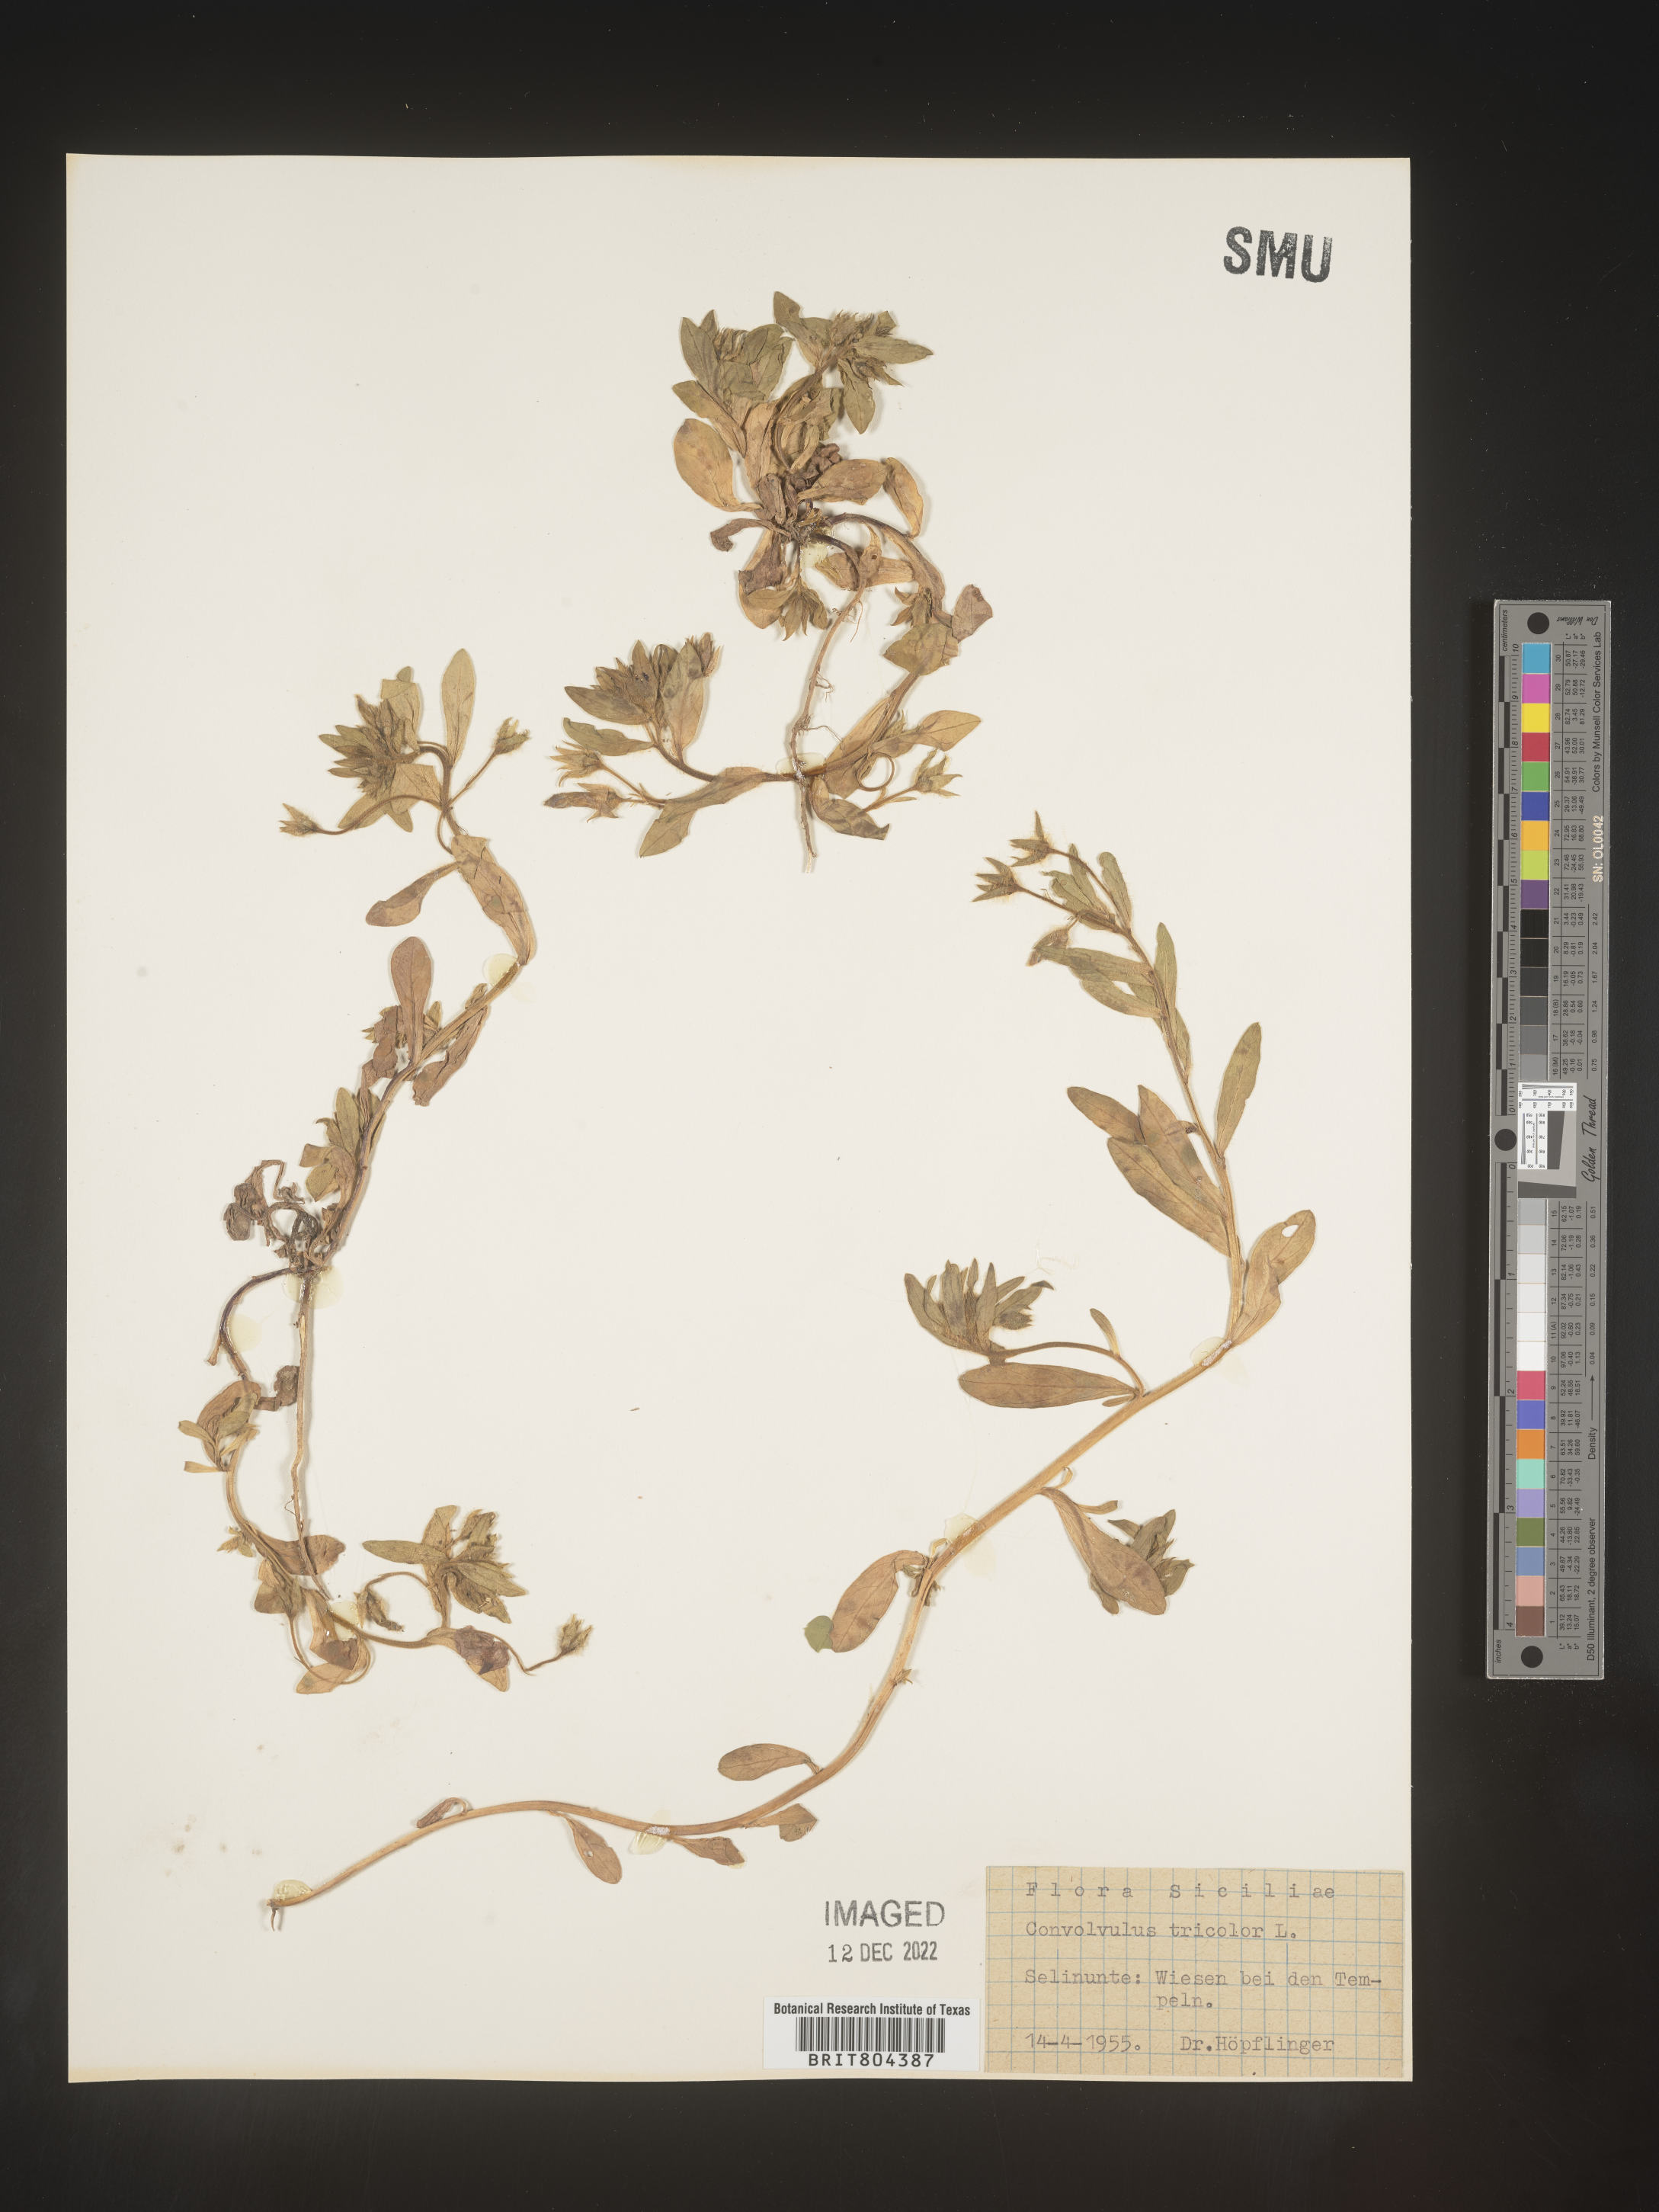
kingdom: Plantae
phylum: Tracheophyta
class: Magnoliopsida
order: Solanales
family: Convolvulaceae
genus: Convolvulus
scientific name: Convolvulus
